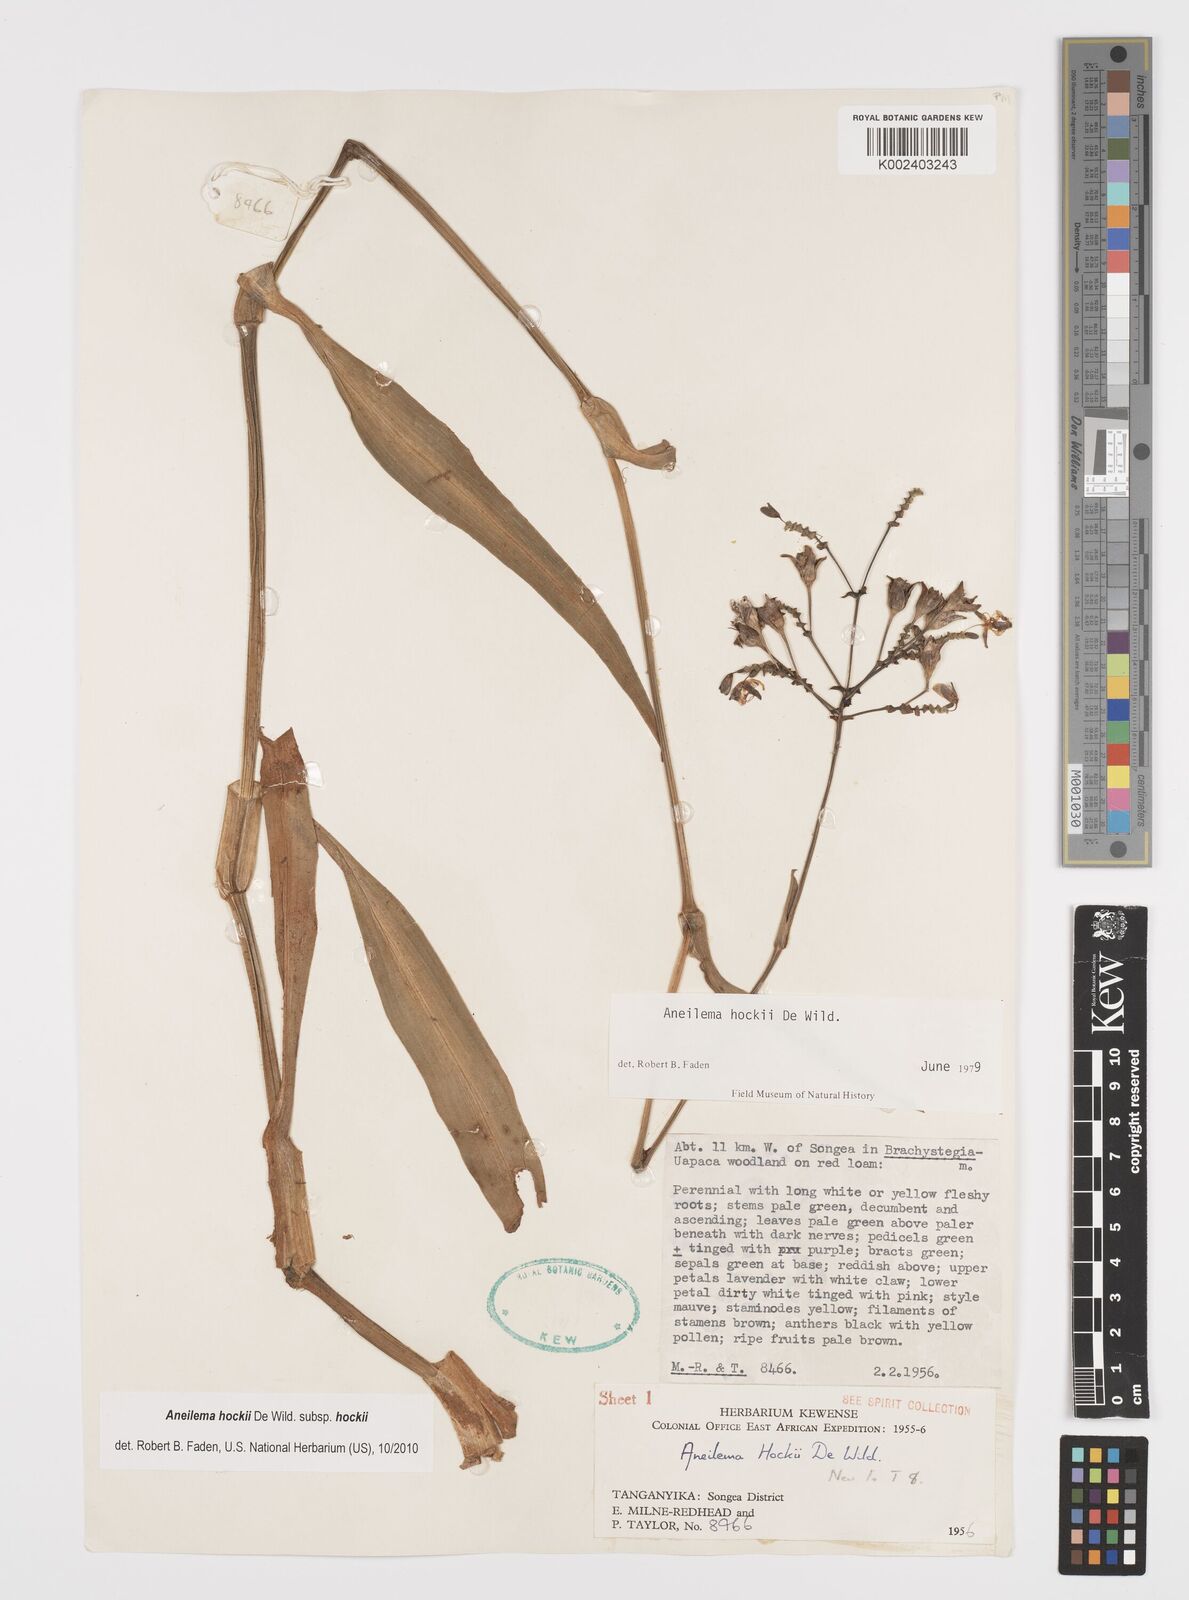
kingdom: Plantae
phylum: Tracheophyta
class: Liliopsida
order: Commelinales
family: Commelinaceae
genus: Aneilema
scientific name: Aneilema hockii
